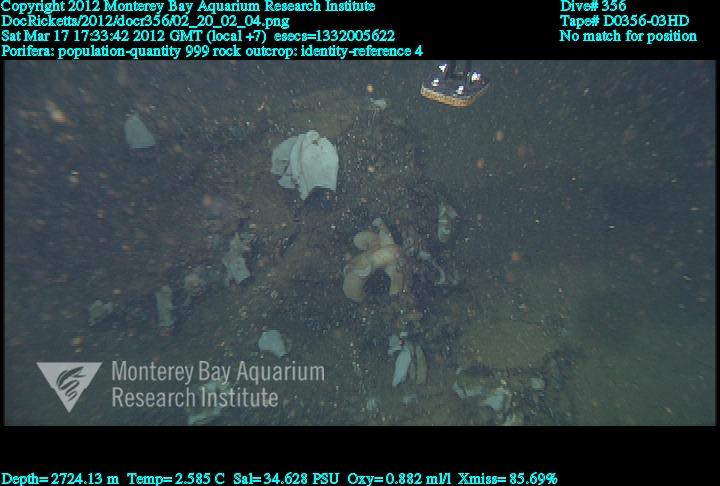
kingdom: Animalia
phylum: Porifera
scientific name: Porifera
